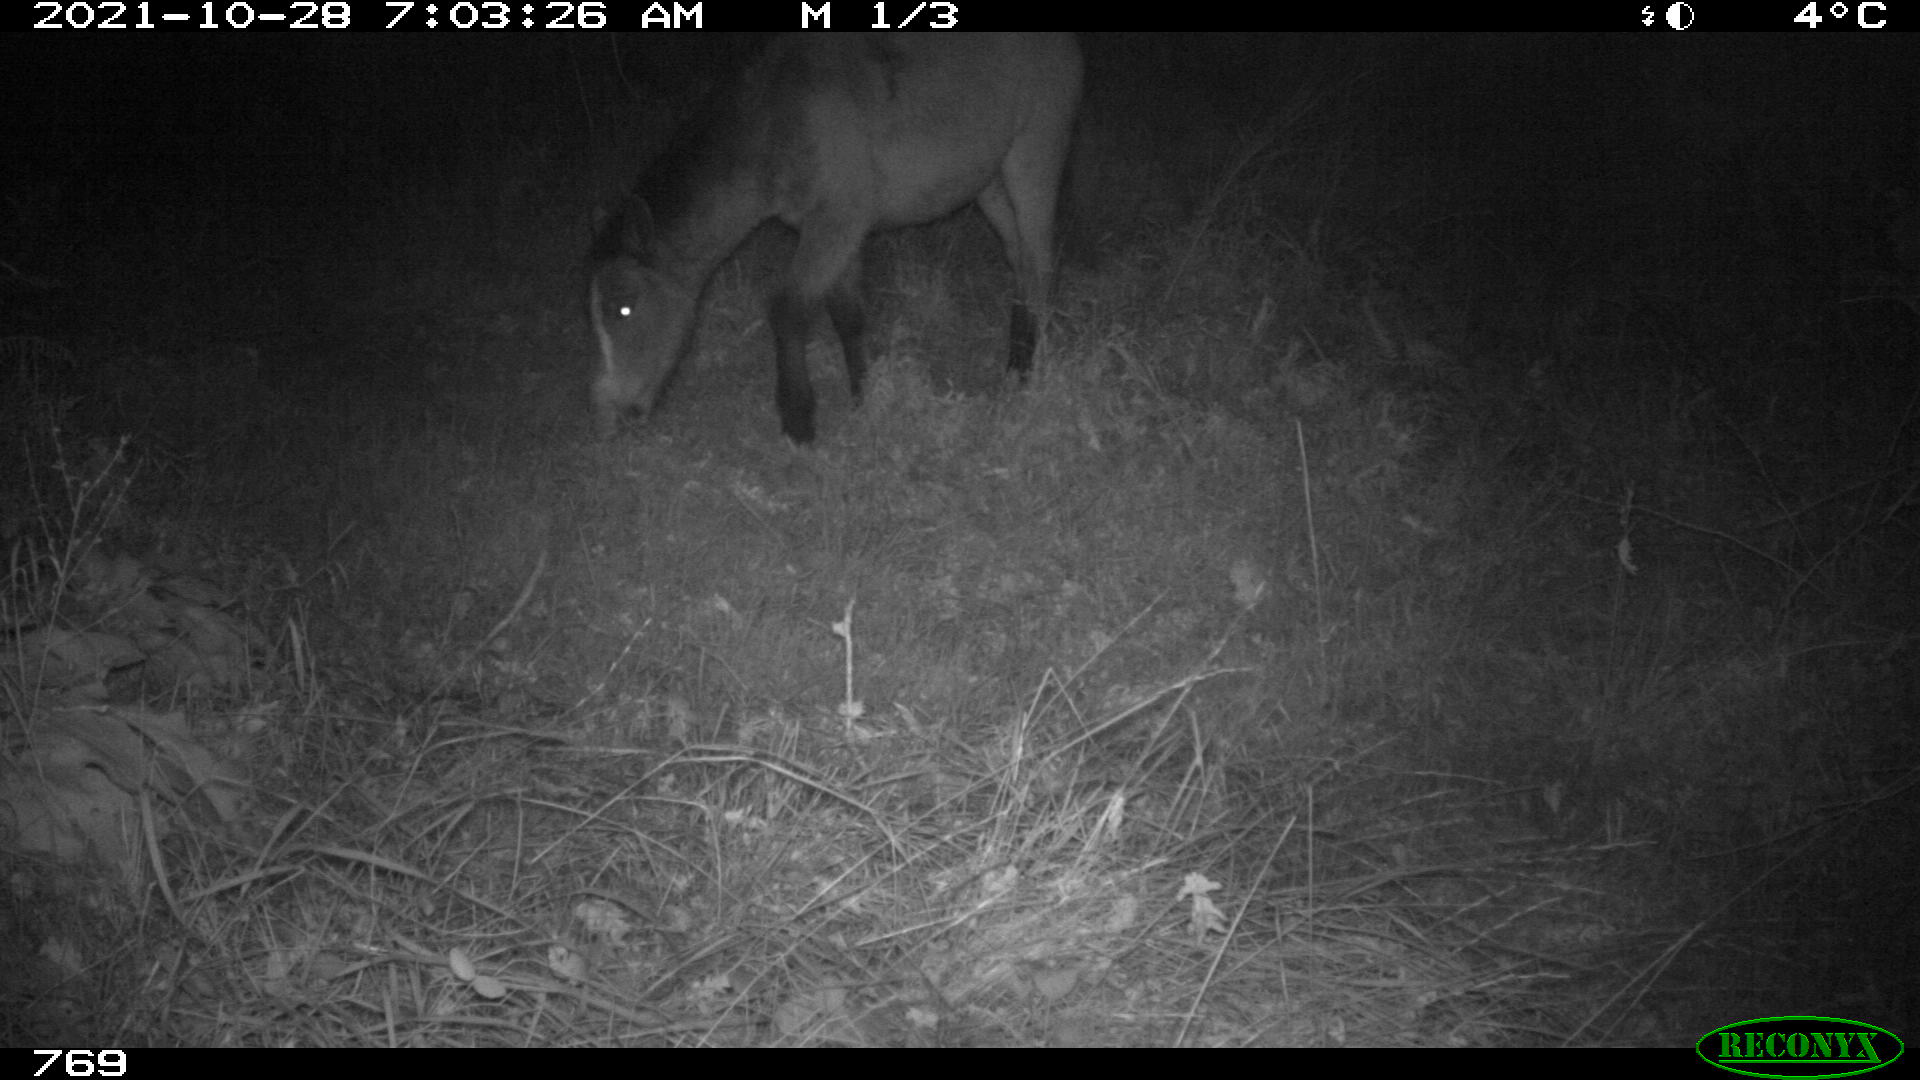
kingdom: Animalia
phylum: Chordata
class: Mammalia
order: Perissodactyla
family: Equidae
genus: Equus
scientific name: Equus caballus
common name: Horse
